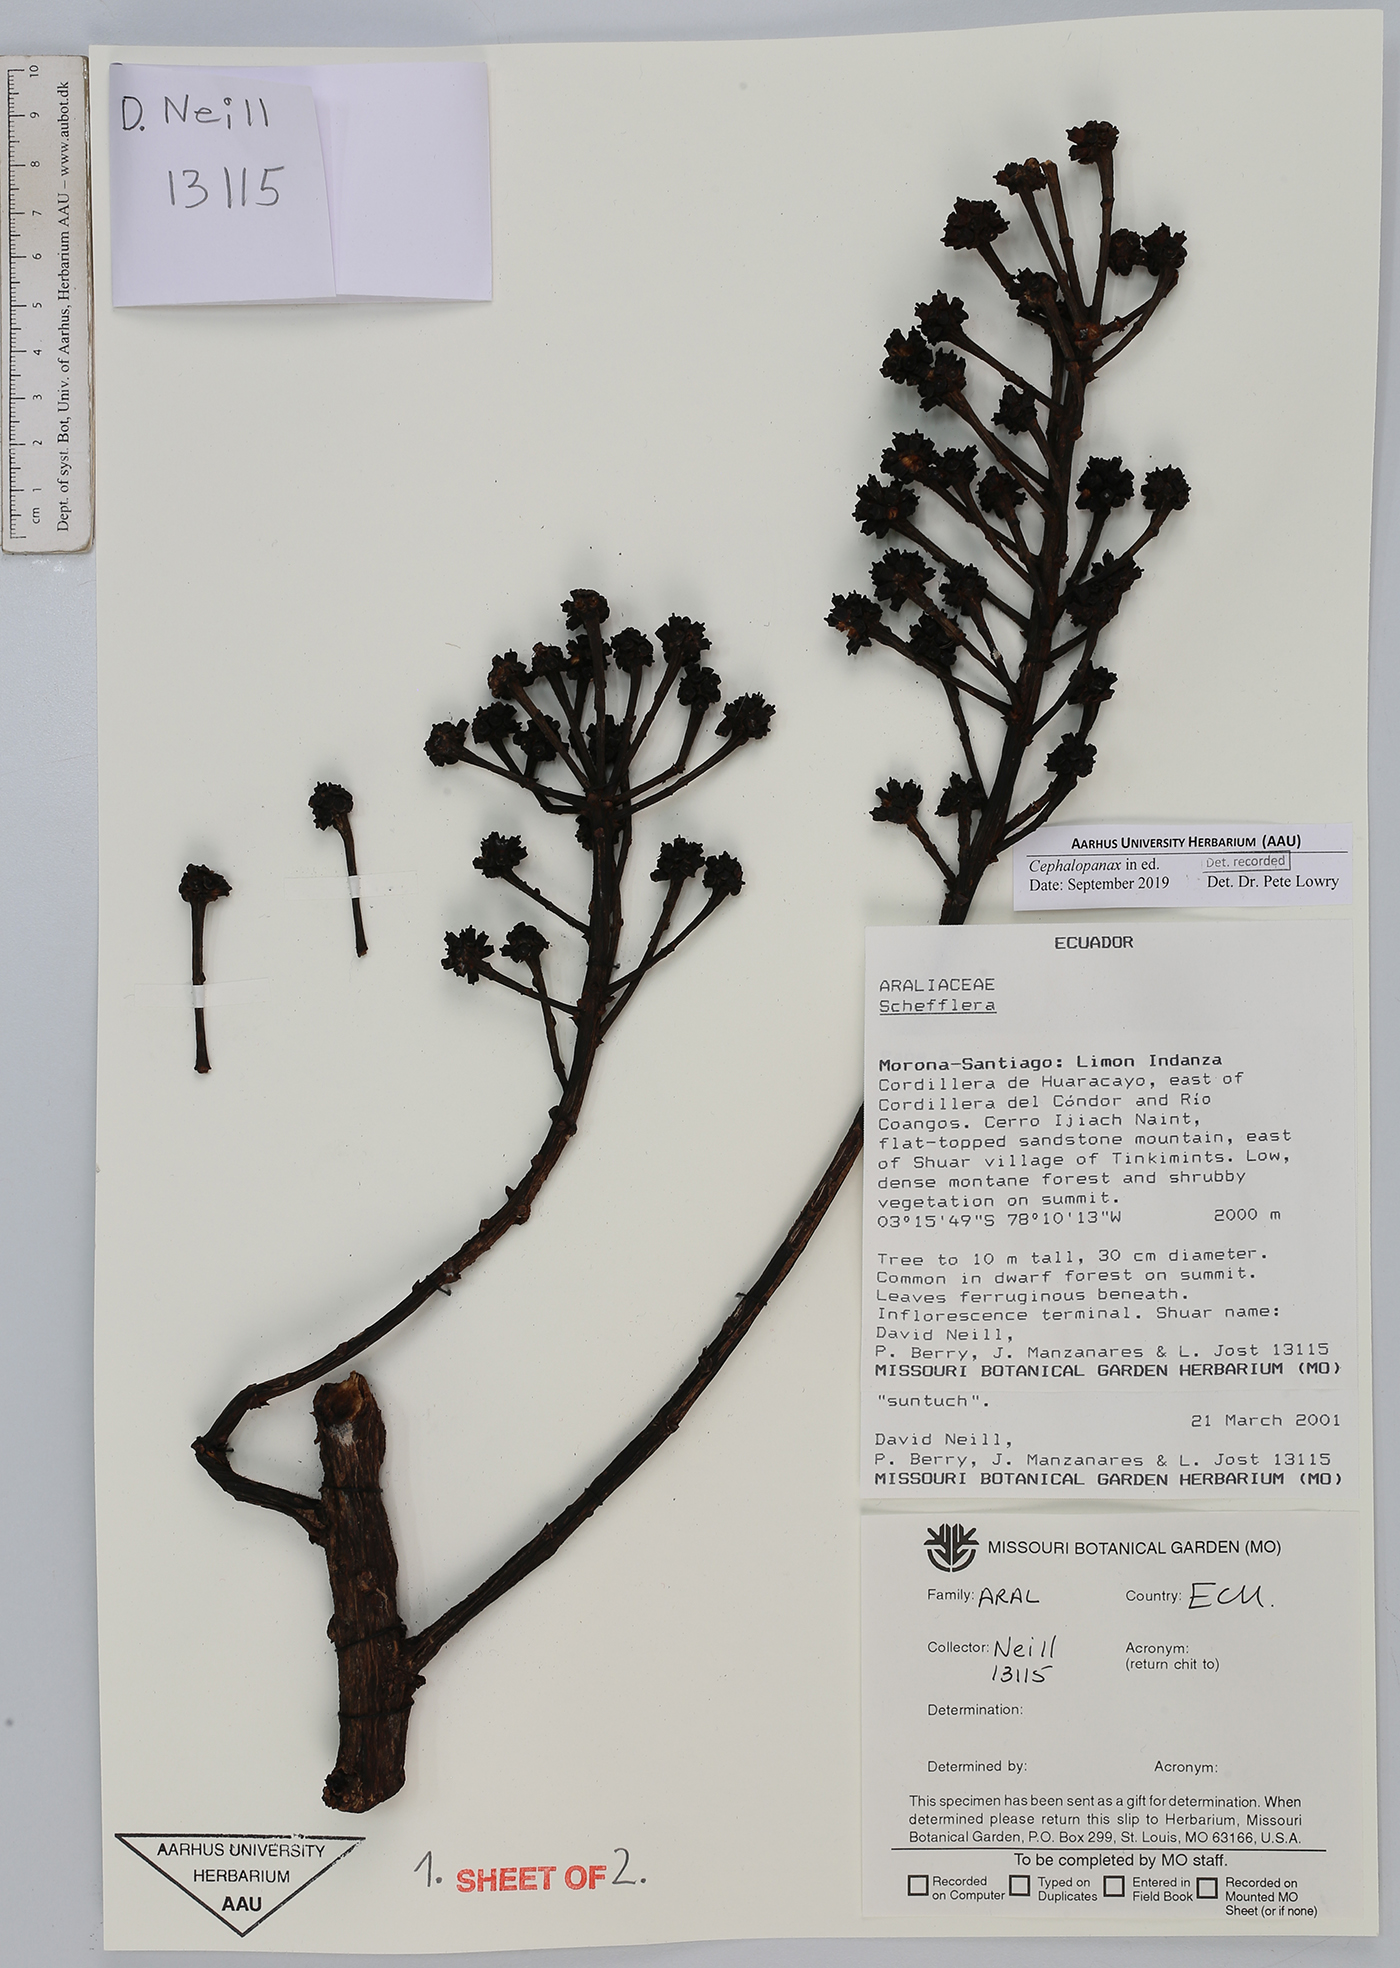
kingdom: Plantae
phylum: Tracheophyta
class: Magnoliopsida
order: Apiales
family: Araliaceae
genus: Cephalopanax
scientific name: Cephalopanax
